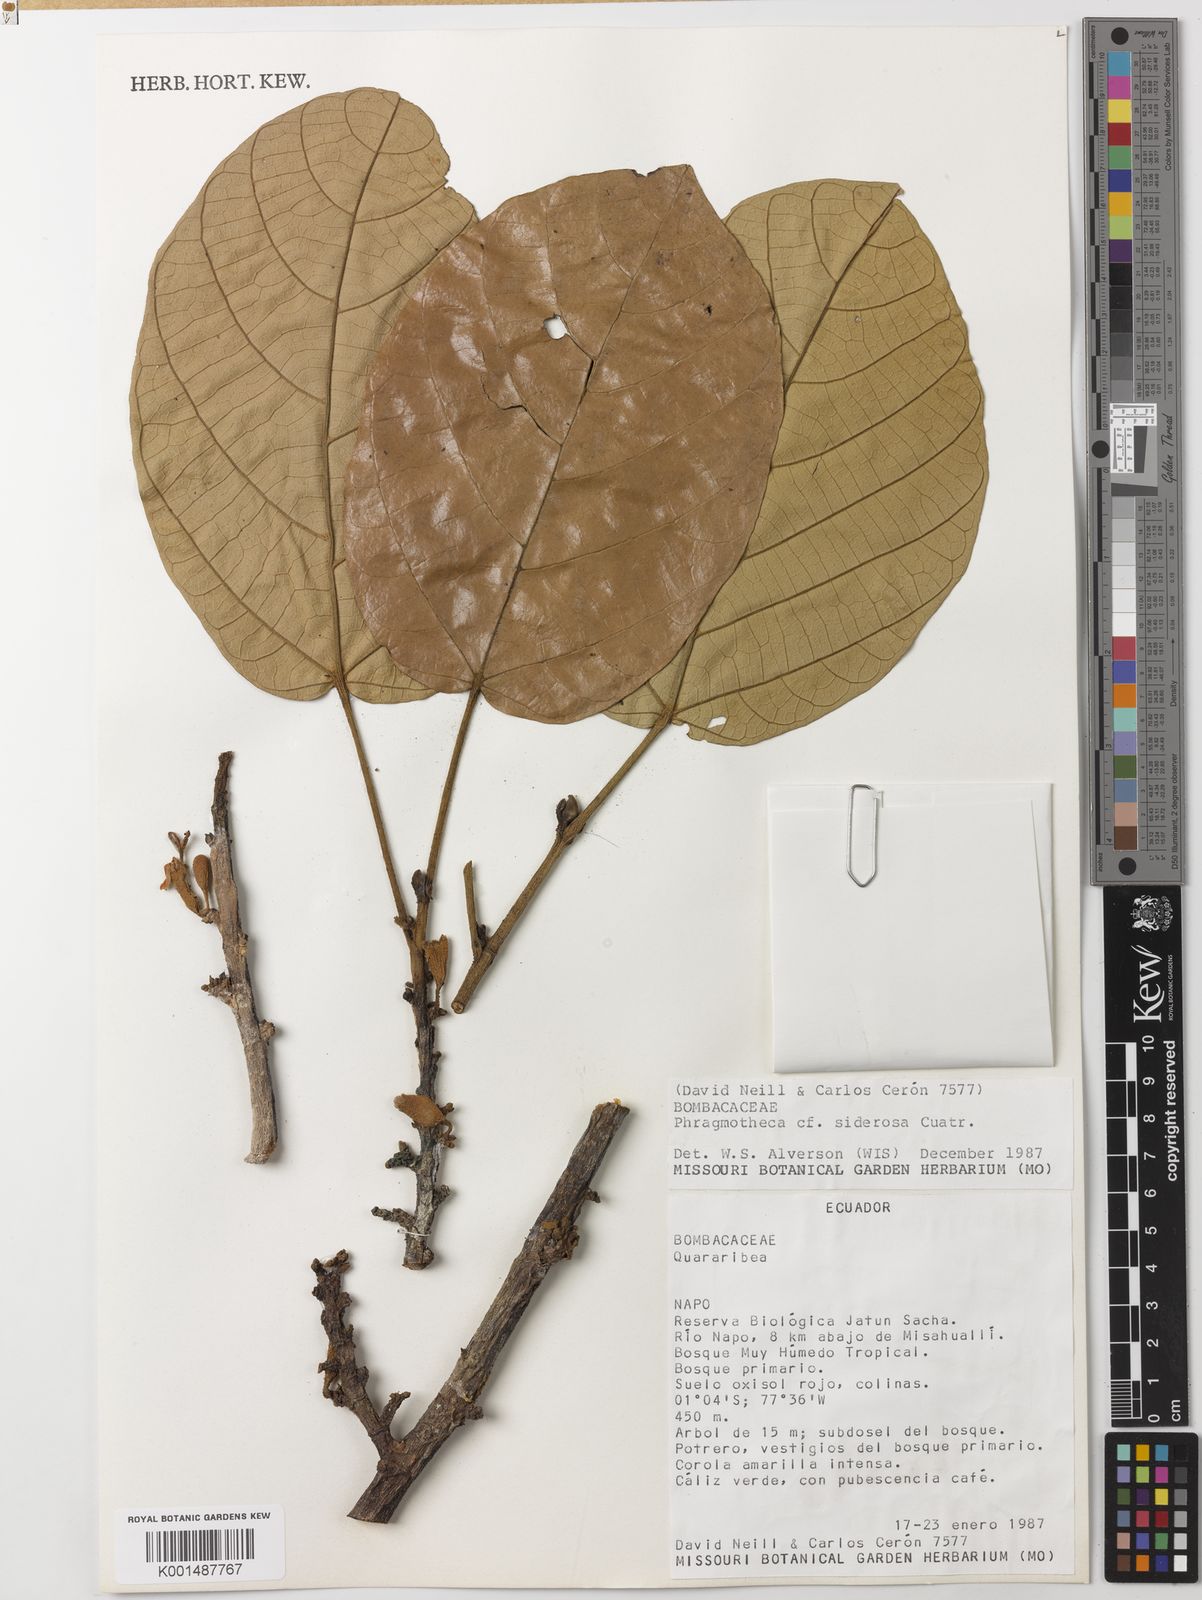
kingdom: Plantae
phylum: Tracheophyta
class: Magnoliopsida
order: Malvales
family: Malvaceae
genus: Phragmotheca
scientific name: Phragmotheca siderosa
